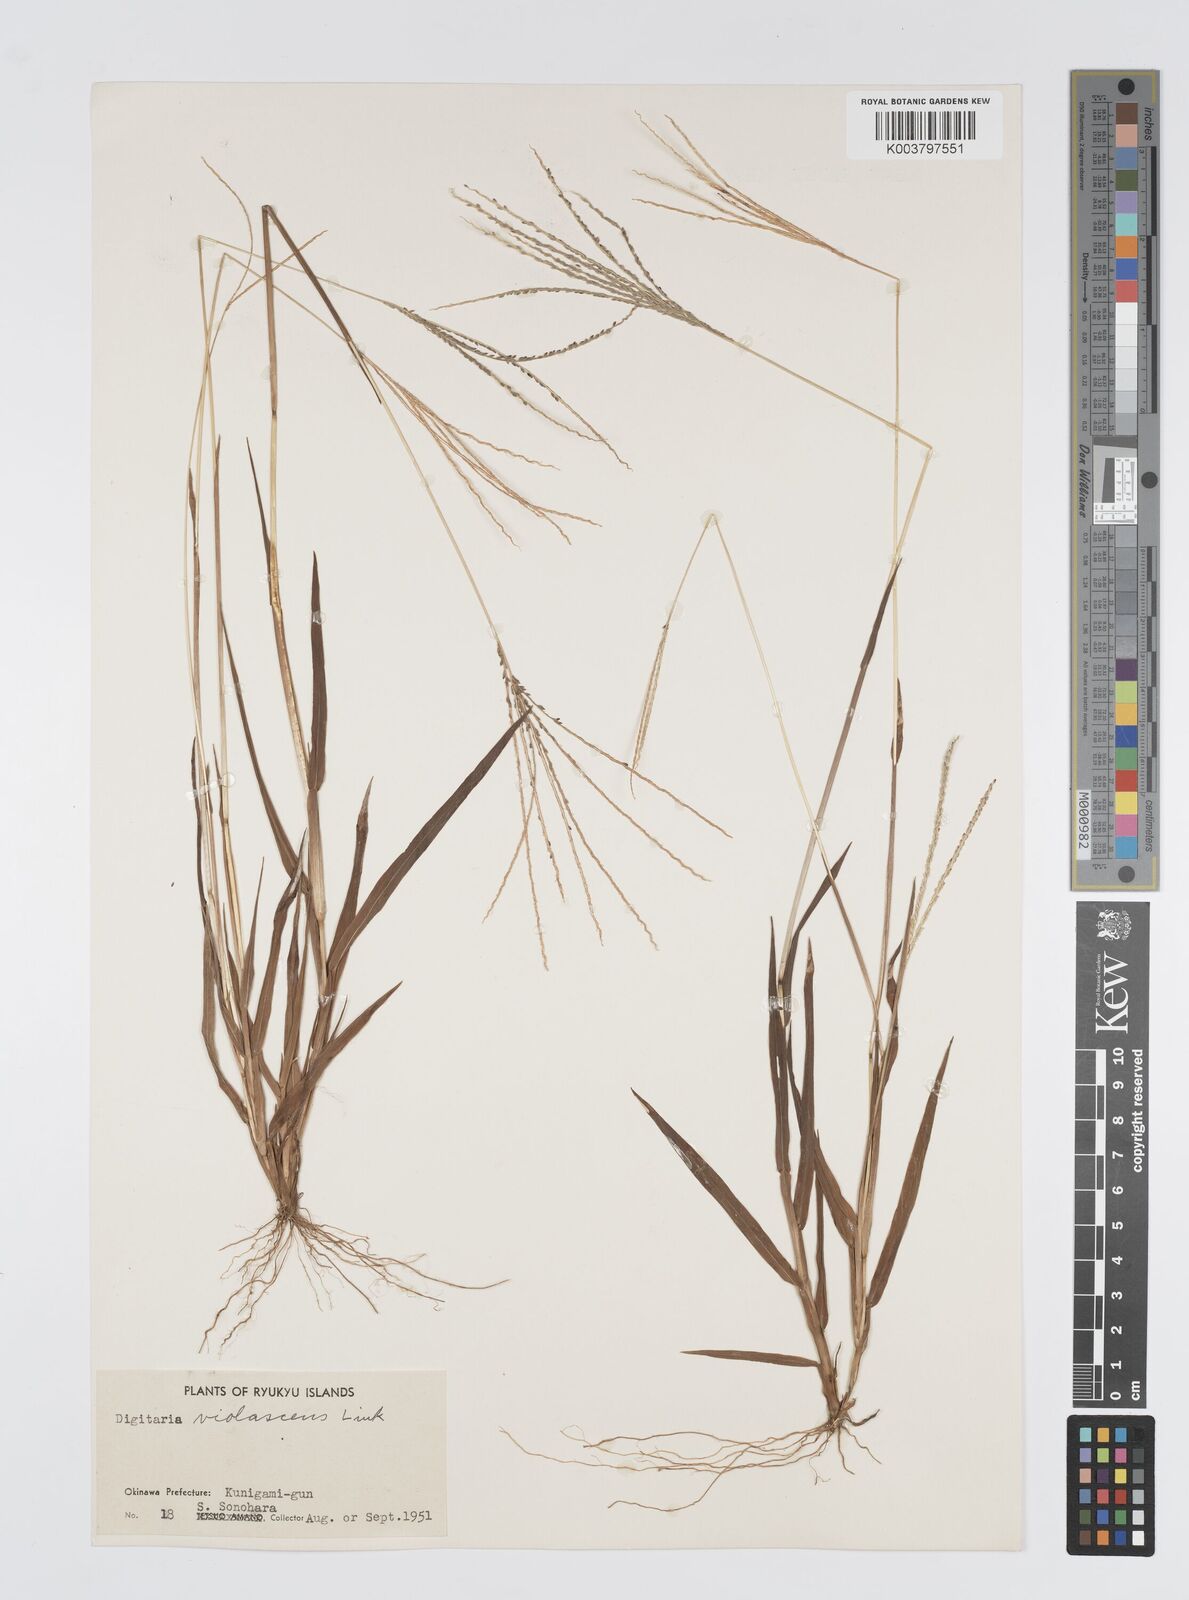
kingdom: Plantae
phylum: Tracheophyta
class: Liliopsida
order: Poales
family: Poaceae
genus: Digitaria
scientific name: Digitaria ternata
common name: Blackseed crabgrass
